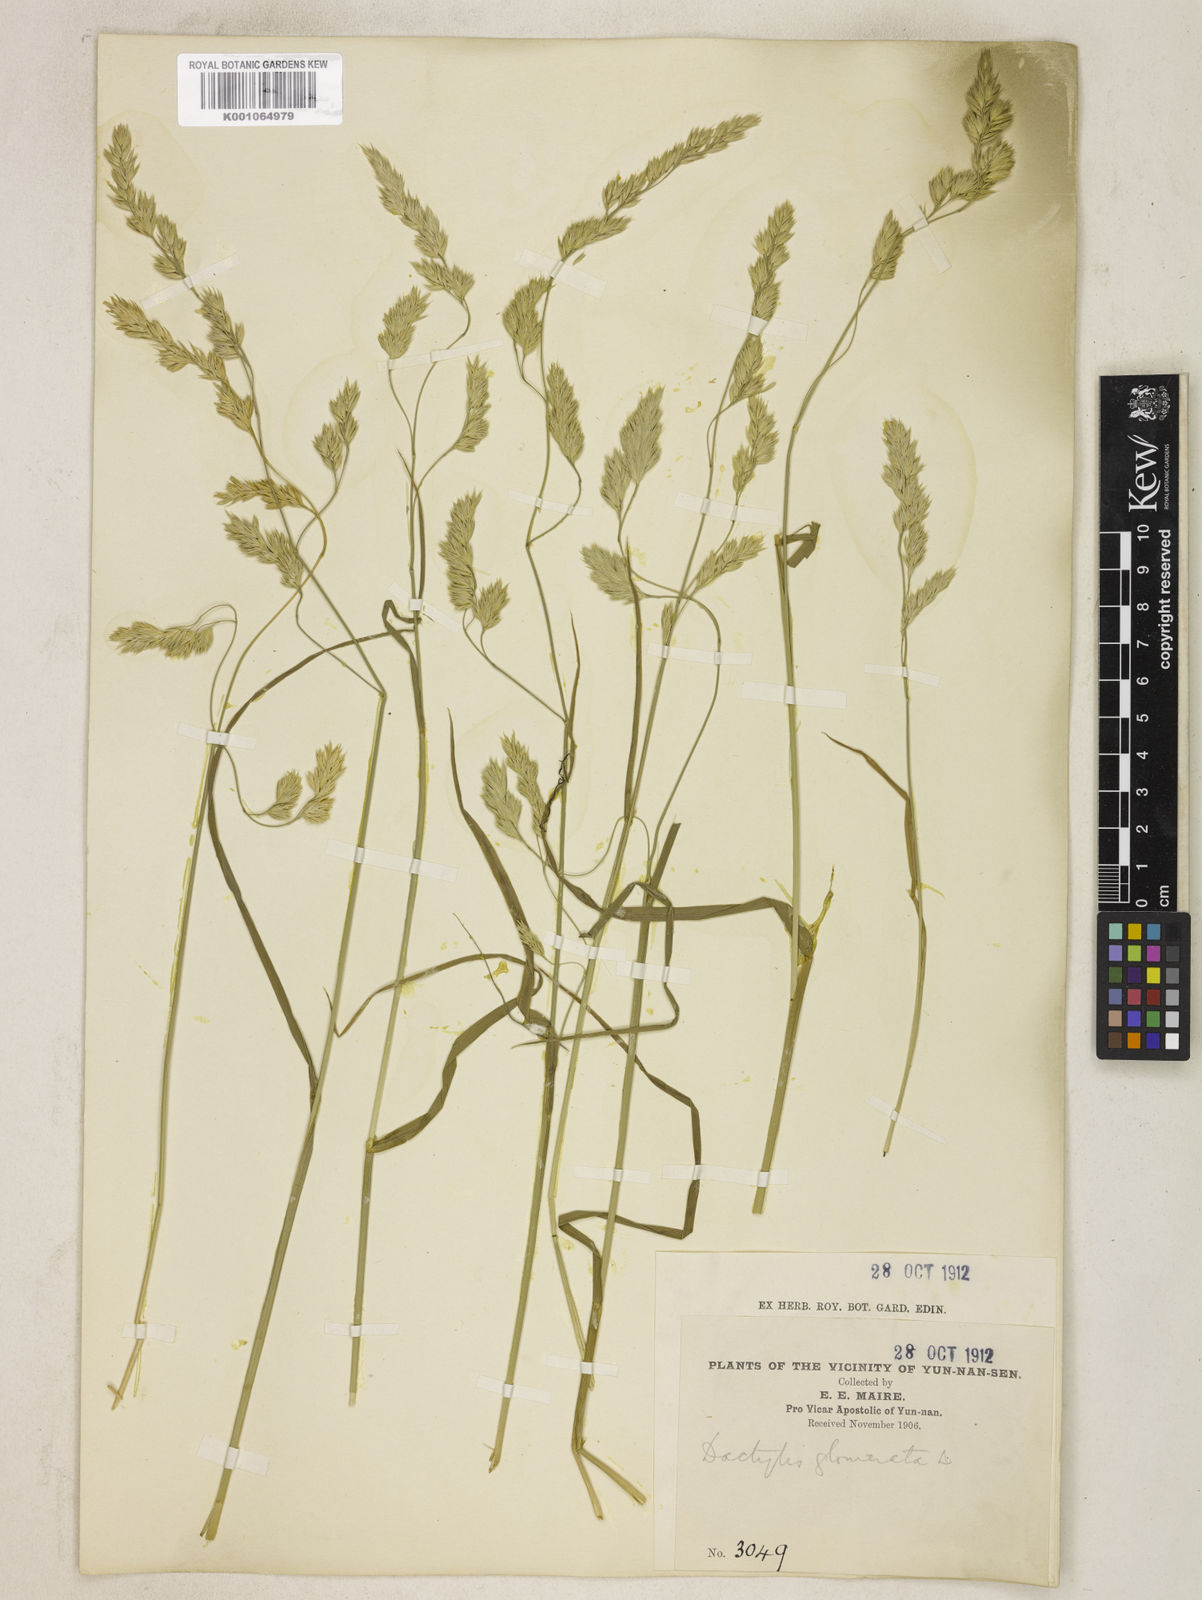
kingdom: Plantae
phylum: Tracheophyta
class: Liliopsida
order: Poales
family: Poaceae
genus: Dactylis
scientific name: Dactylis glomerata
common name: Orchardgrass
